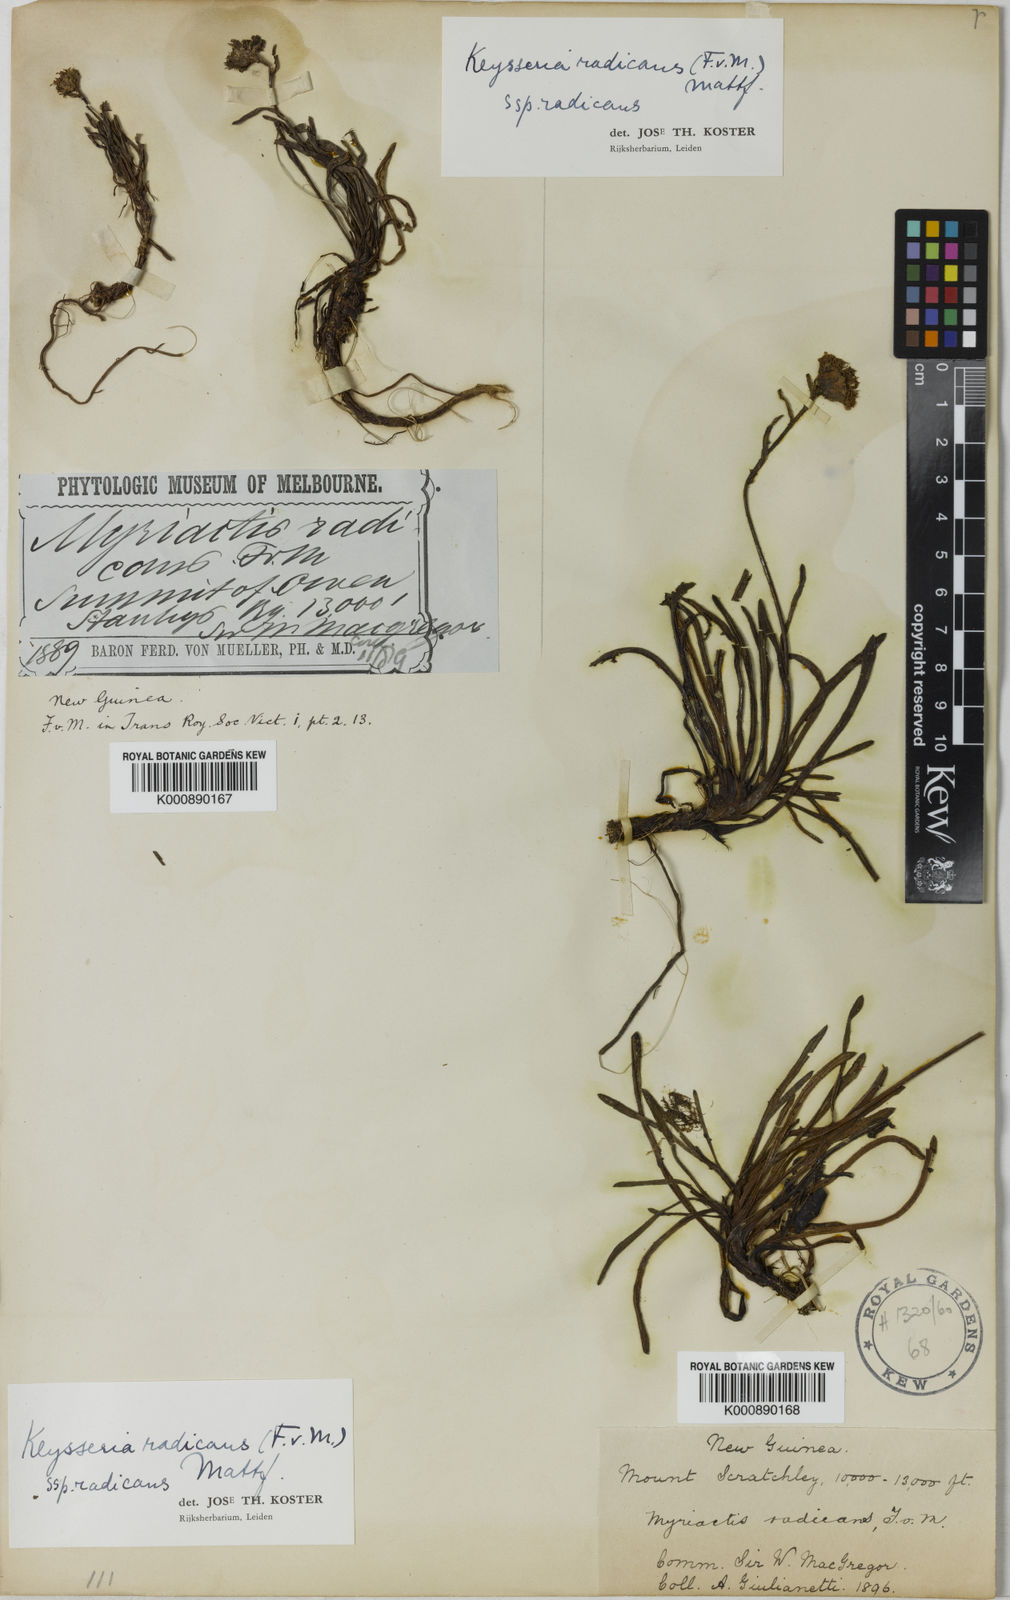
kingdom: Plantae
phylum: Tracheophyta
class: Magnoliopsida
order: Asterales
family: Asteraceae
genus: Keysseria
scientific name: Keysseria radicans
